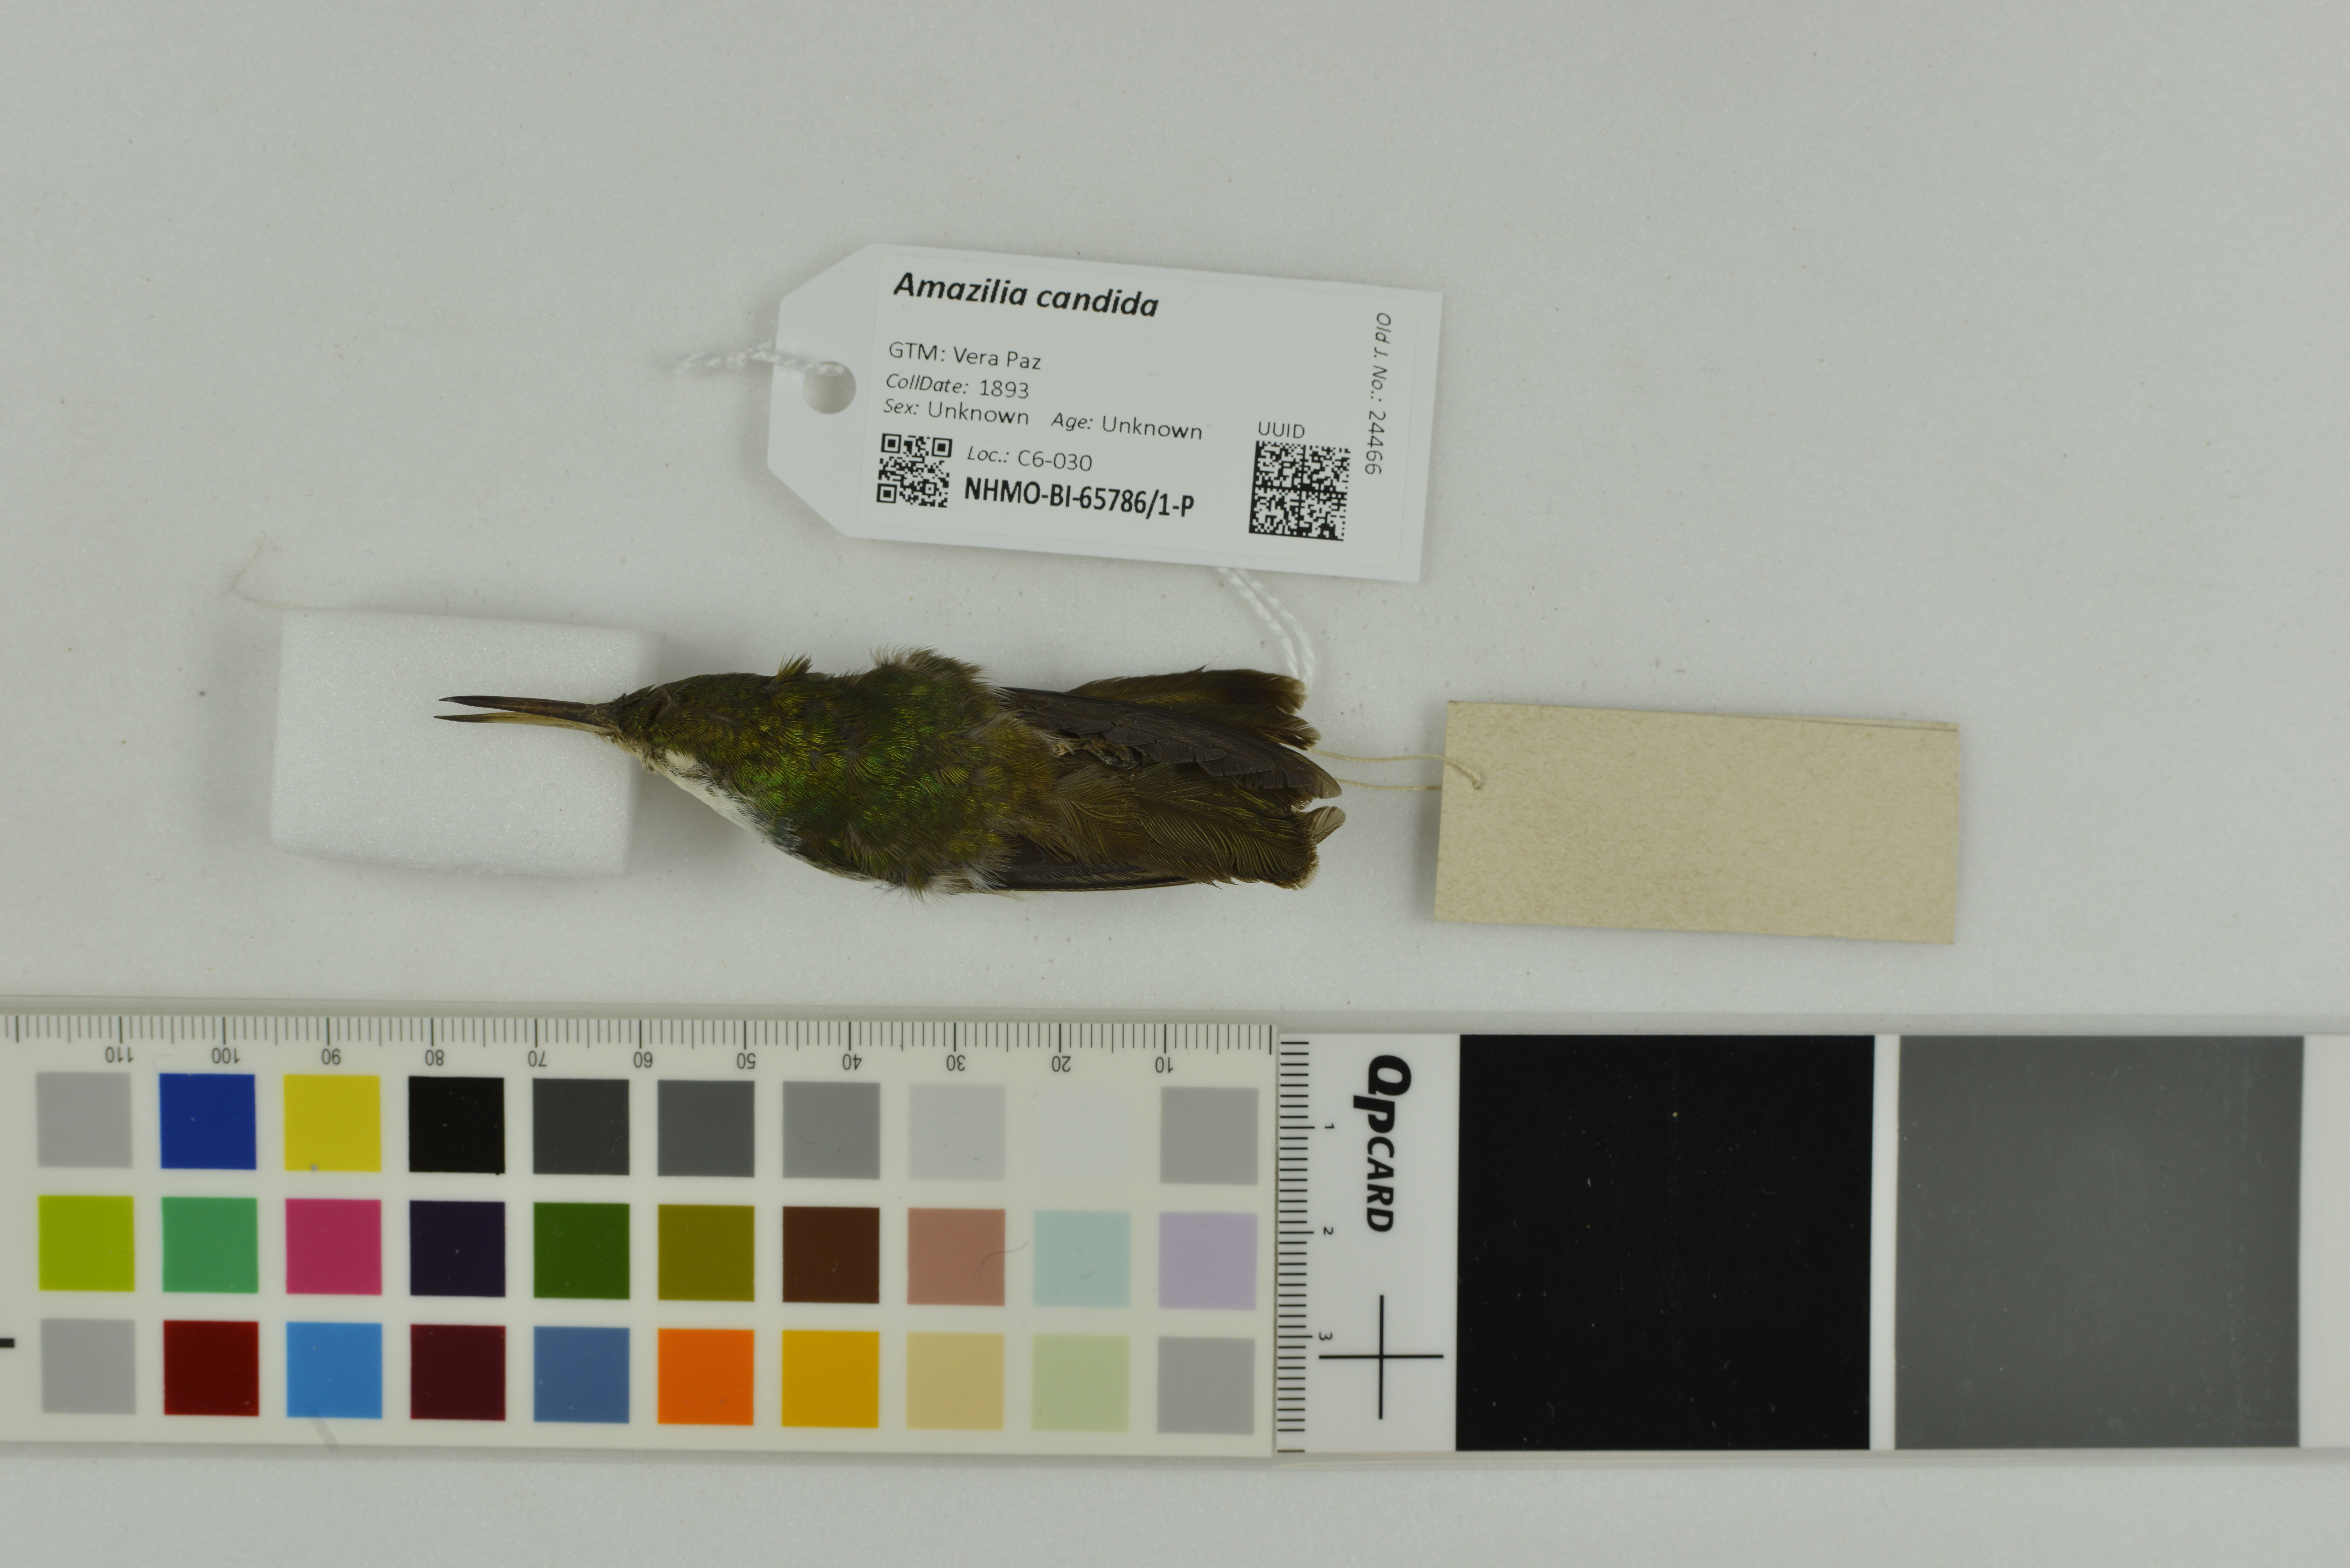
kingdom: Animalia
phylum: Chordata
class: Aves
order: Apodiformes
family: Trochilidae
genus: Chlorestes
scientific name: Chlorestes candida
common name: White-bellied emerald
